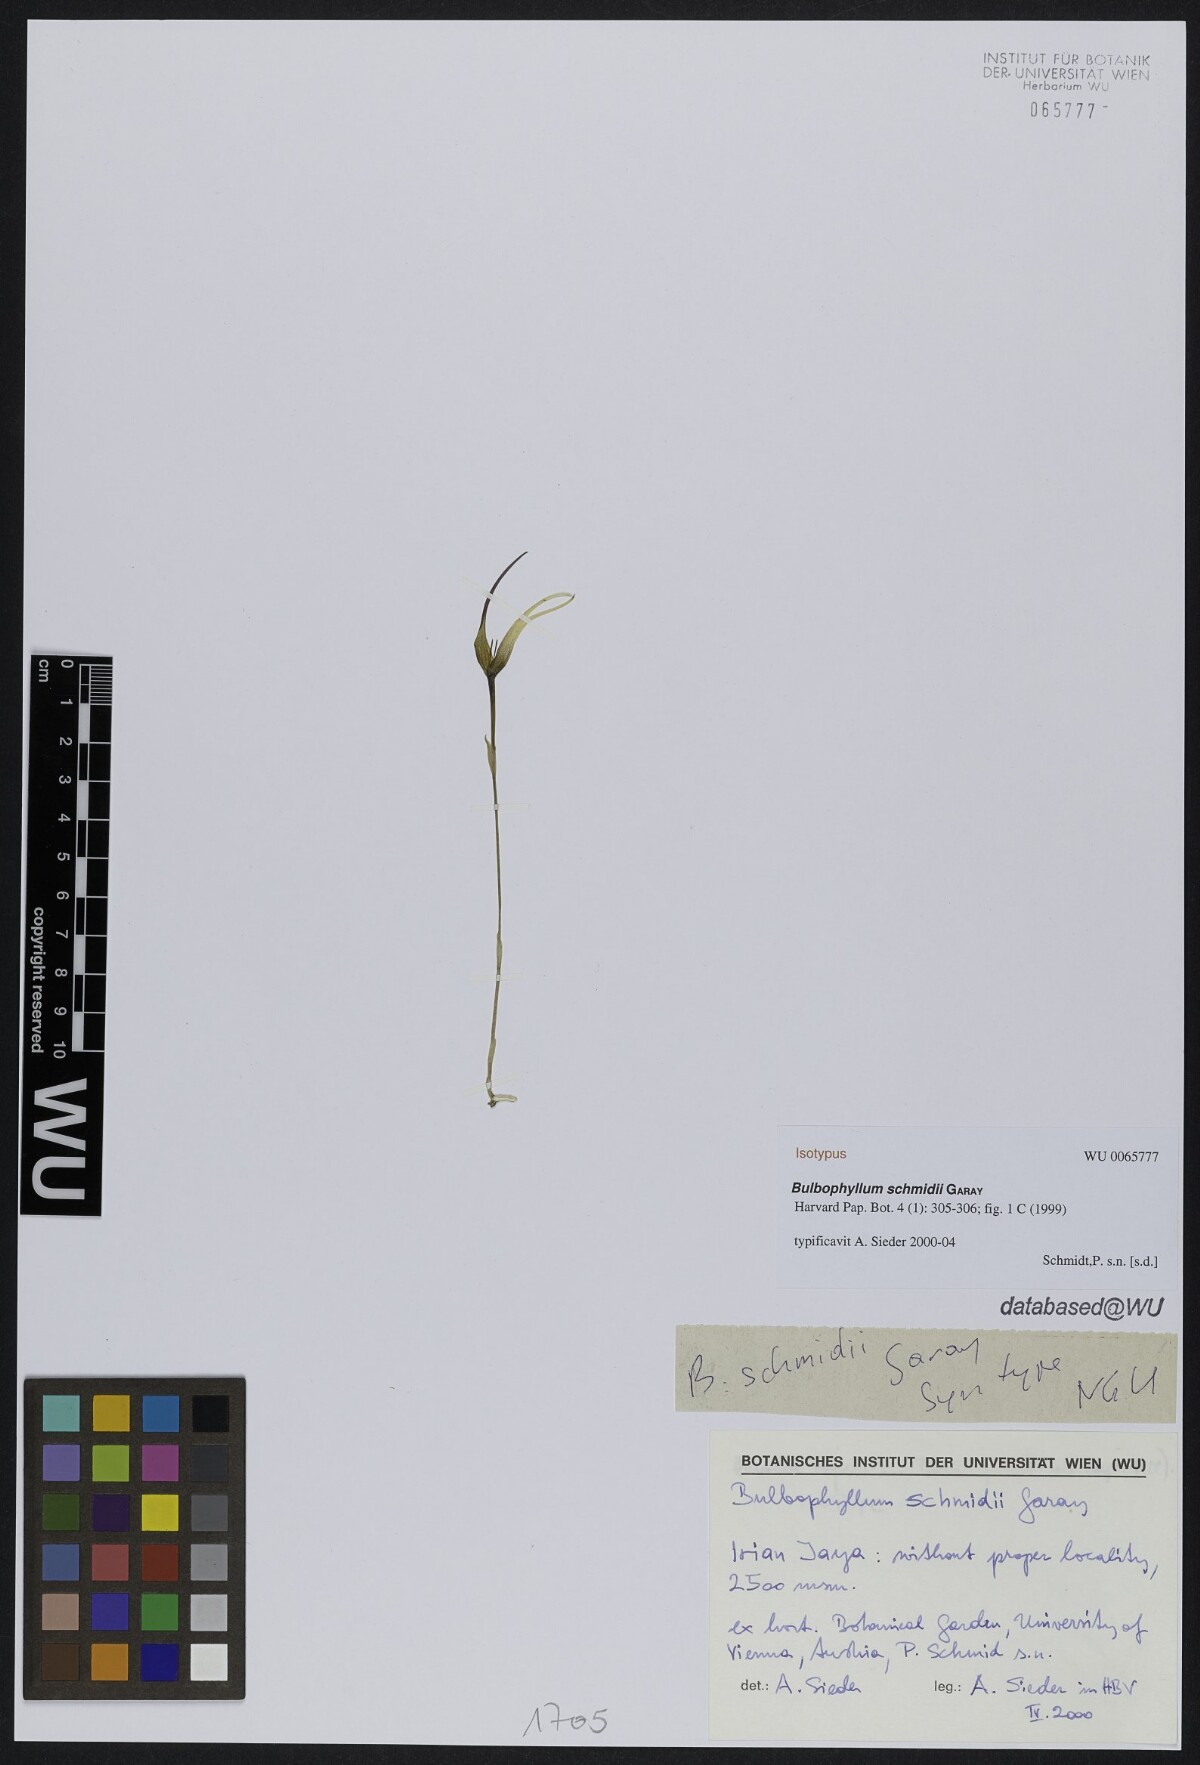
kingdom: Plantae
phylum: Tracheophyta
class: Liliopsida
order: Asparagales
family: Orchidaceae
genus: Bulbophyllum
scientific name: Bulbophyllum schmidii
